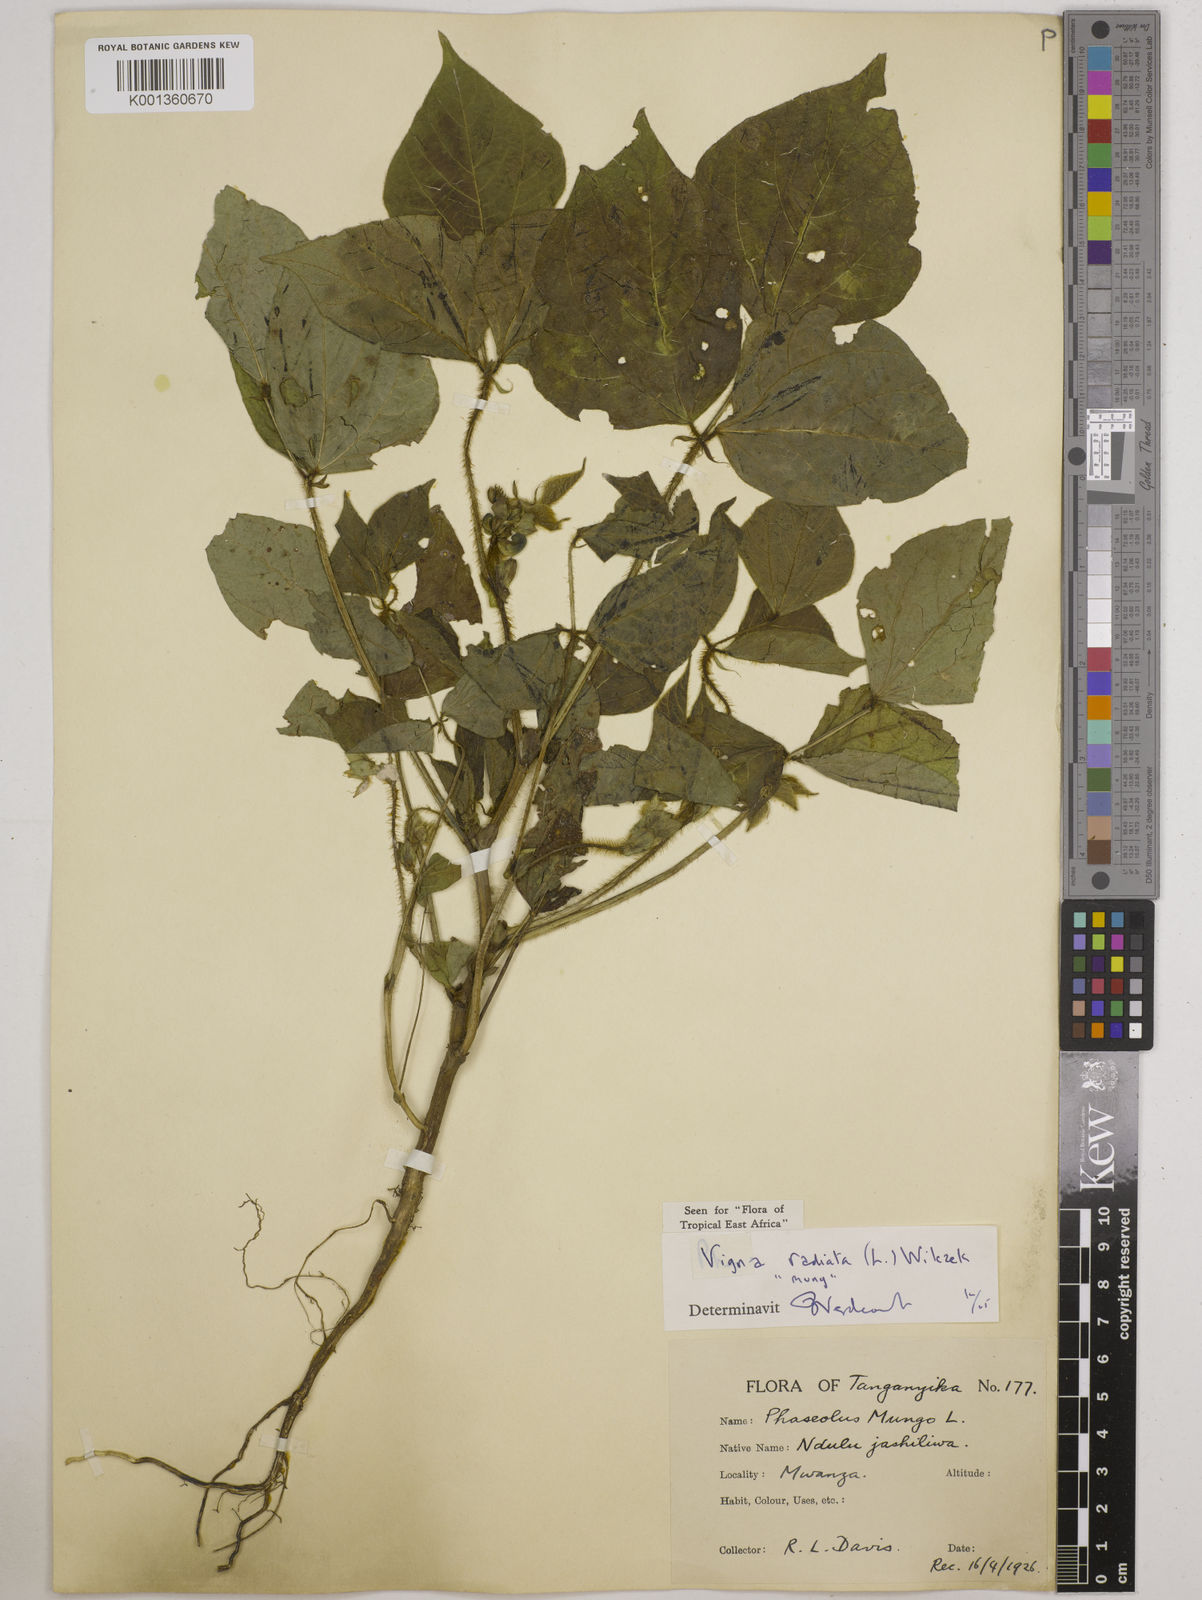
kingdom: Plantae
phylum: Tracheophyta
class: Magnoliopsida
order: Fabales
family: Fabaceae
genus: Vigna
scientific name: Vigna radiata
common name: Mung-bean
